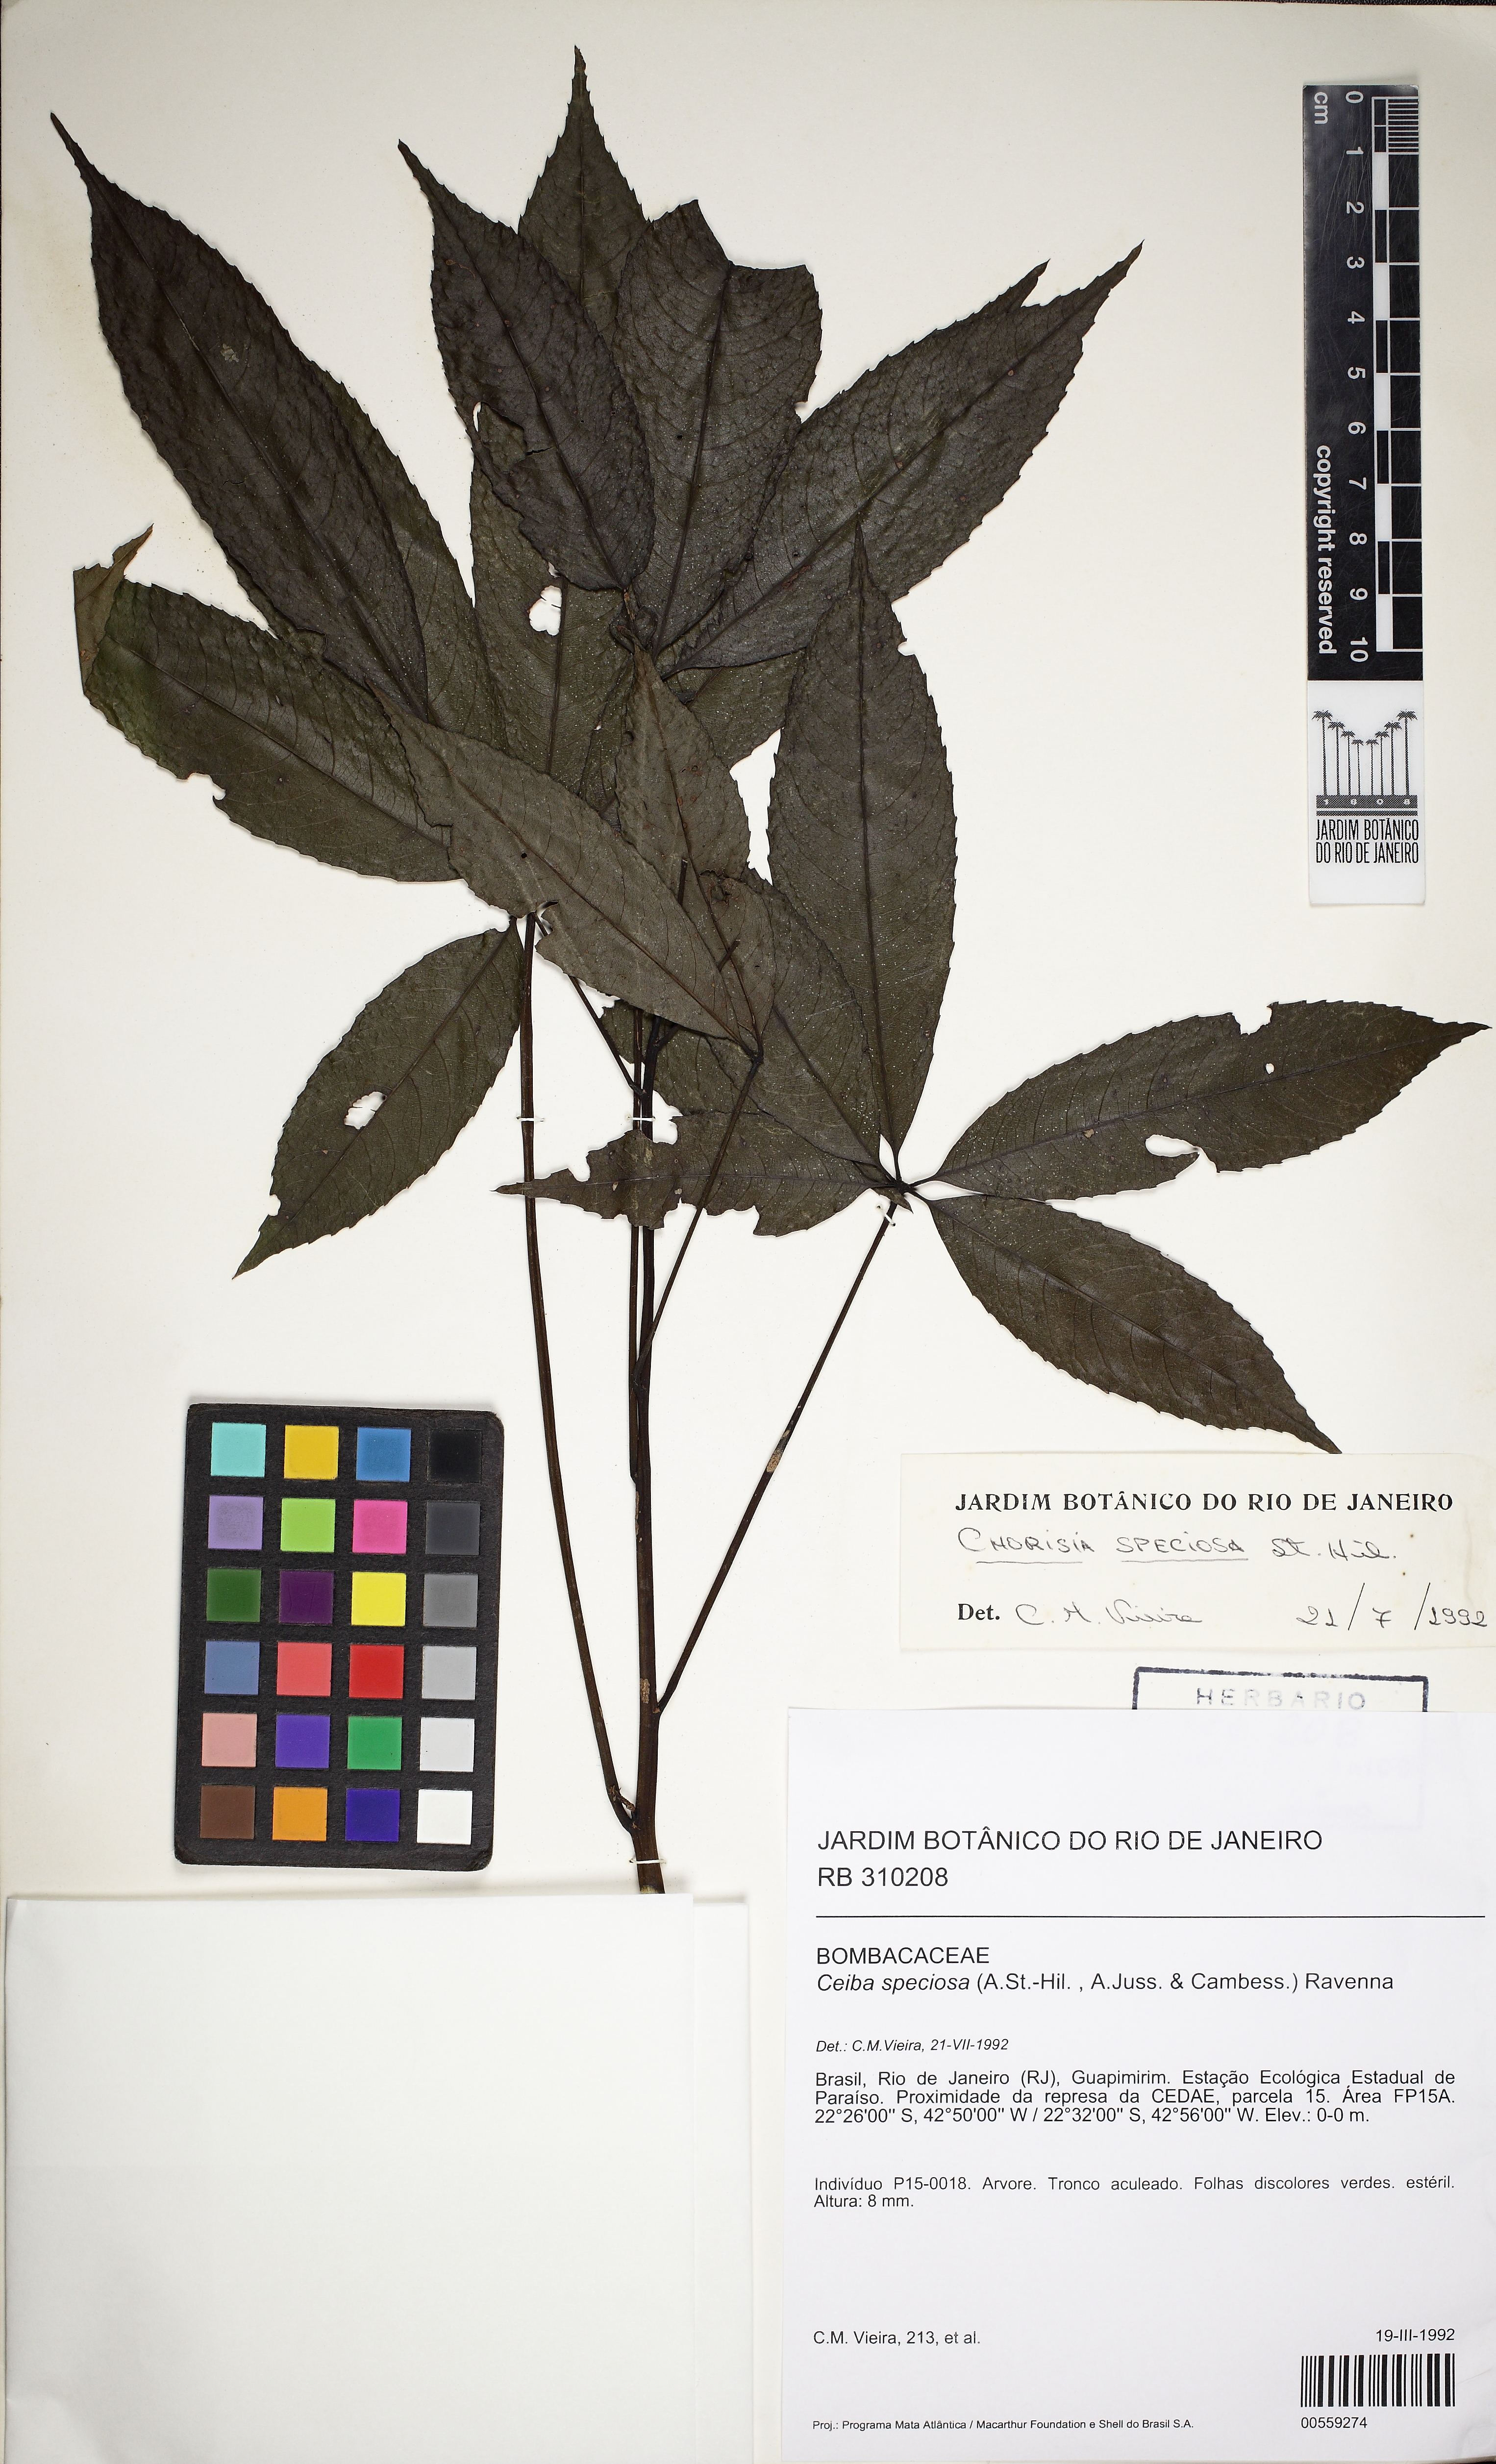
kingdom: Plantae
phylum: Tracheophyta
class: Magnoliopsida
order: Malvales
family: Malvaceae
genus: Ceiba
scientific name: Ceiba speciosa
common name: Silk-floss tree
